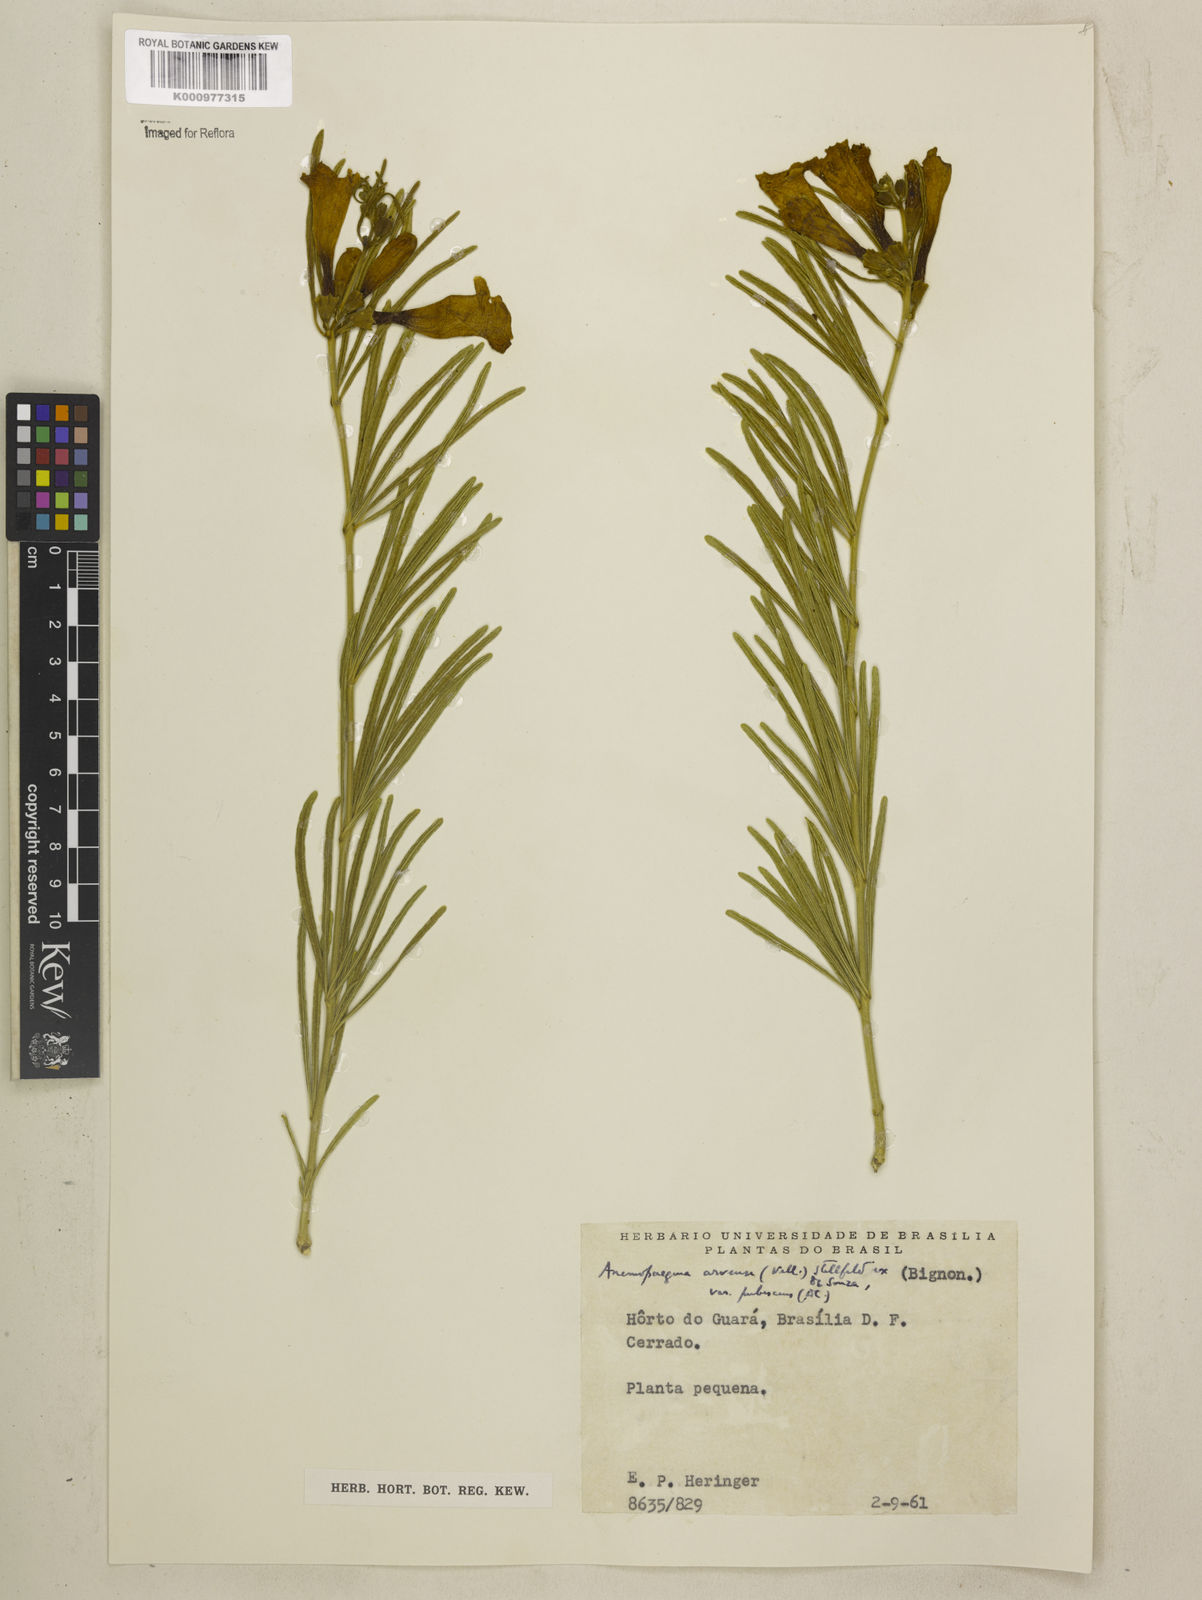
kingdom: Plantae
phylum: Tracheophyta
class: Magnoliopsida
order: Lamiales
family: Bignoniaceae
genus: Anemopaegma
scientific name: Anemopaegma arvense
